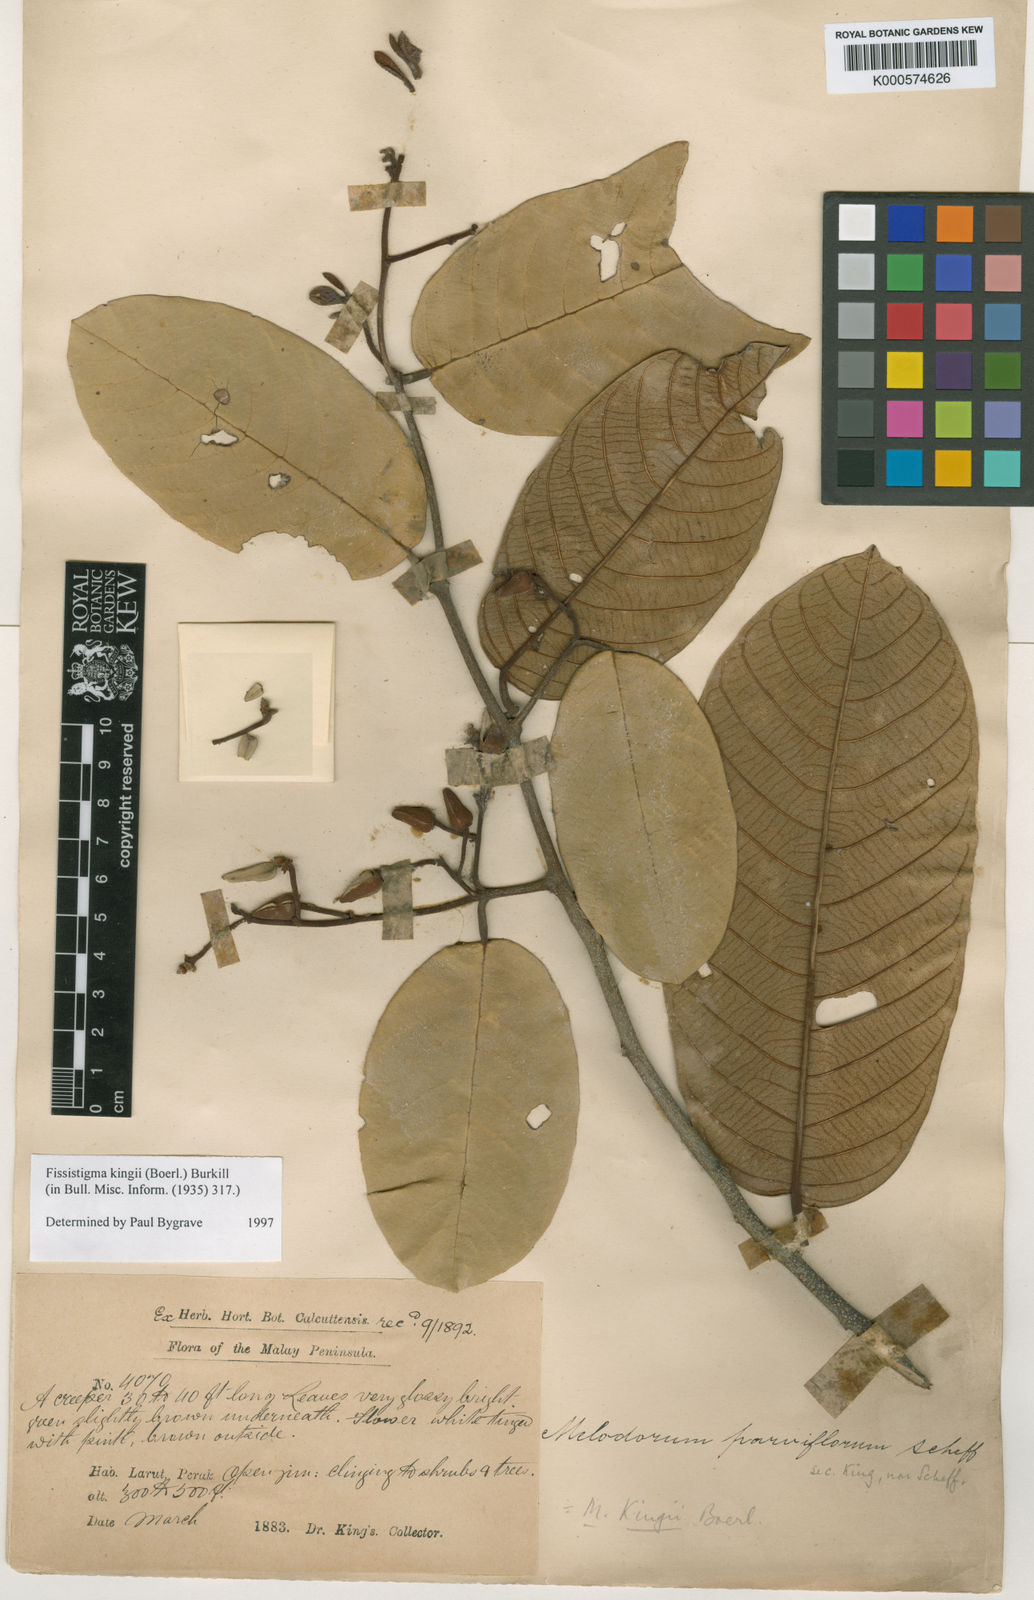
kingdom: Plantae
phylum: Tracheophyta
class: Magnoliopsida
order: Magnoliales
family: Annonaceae
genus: Fissistigma
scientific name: Fissistigma kingii
